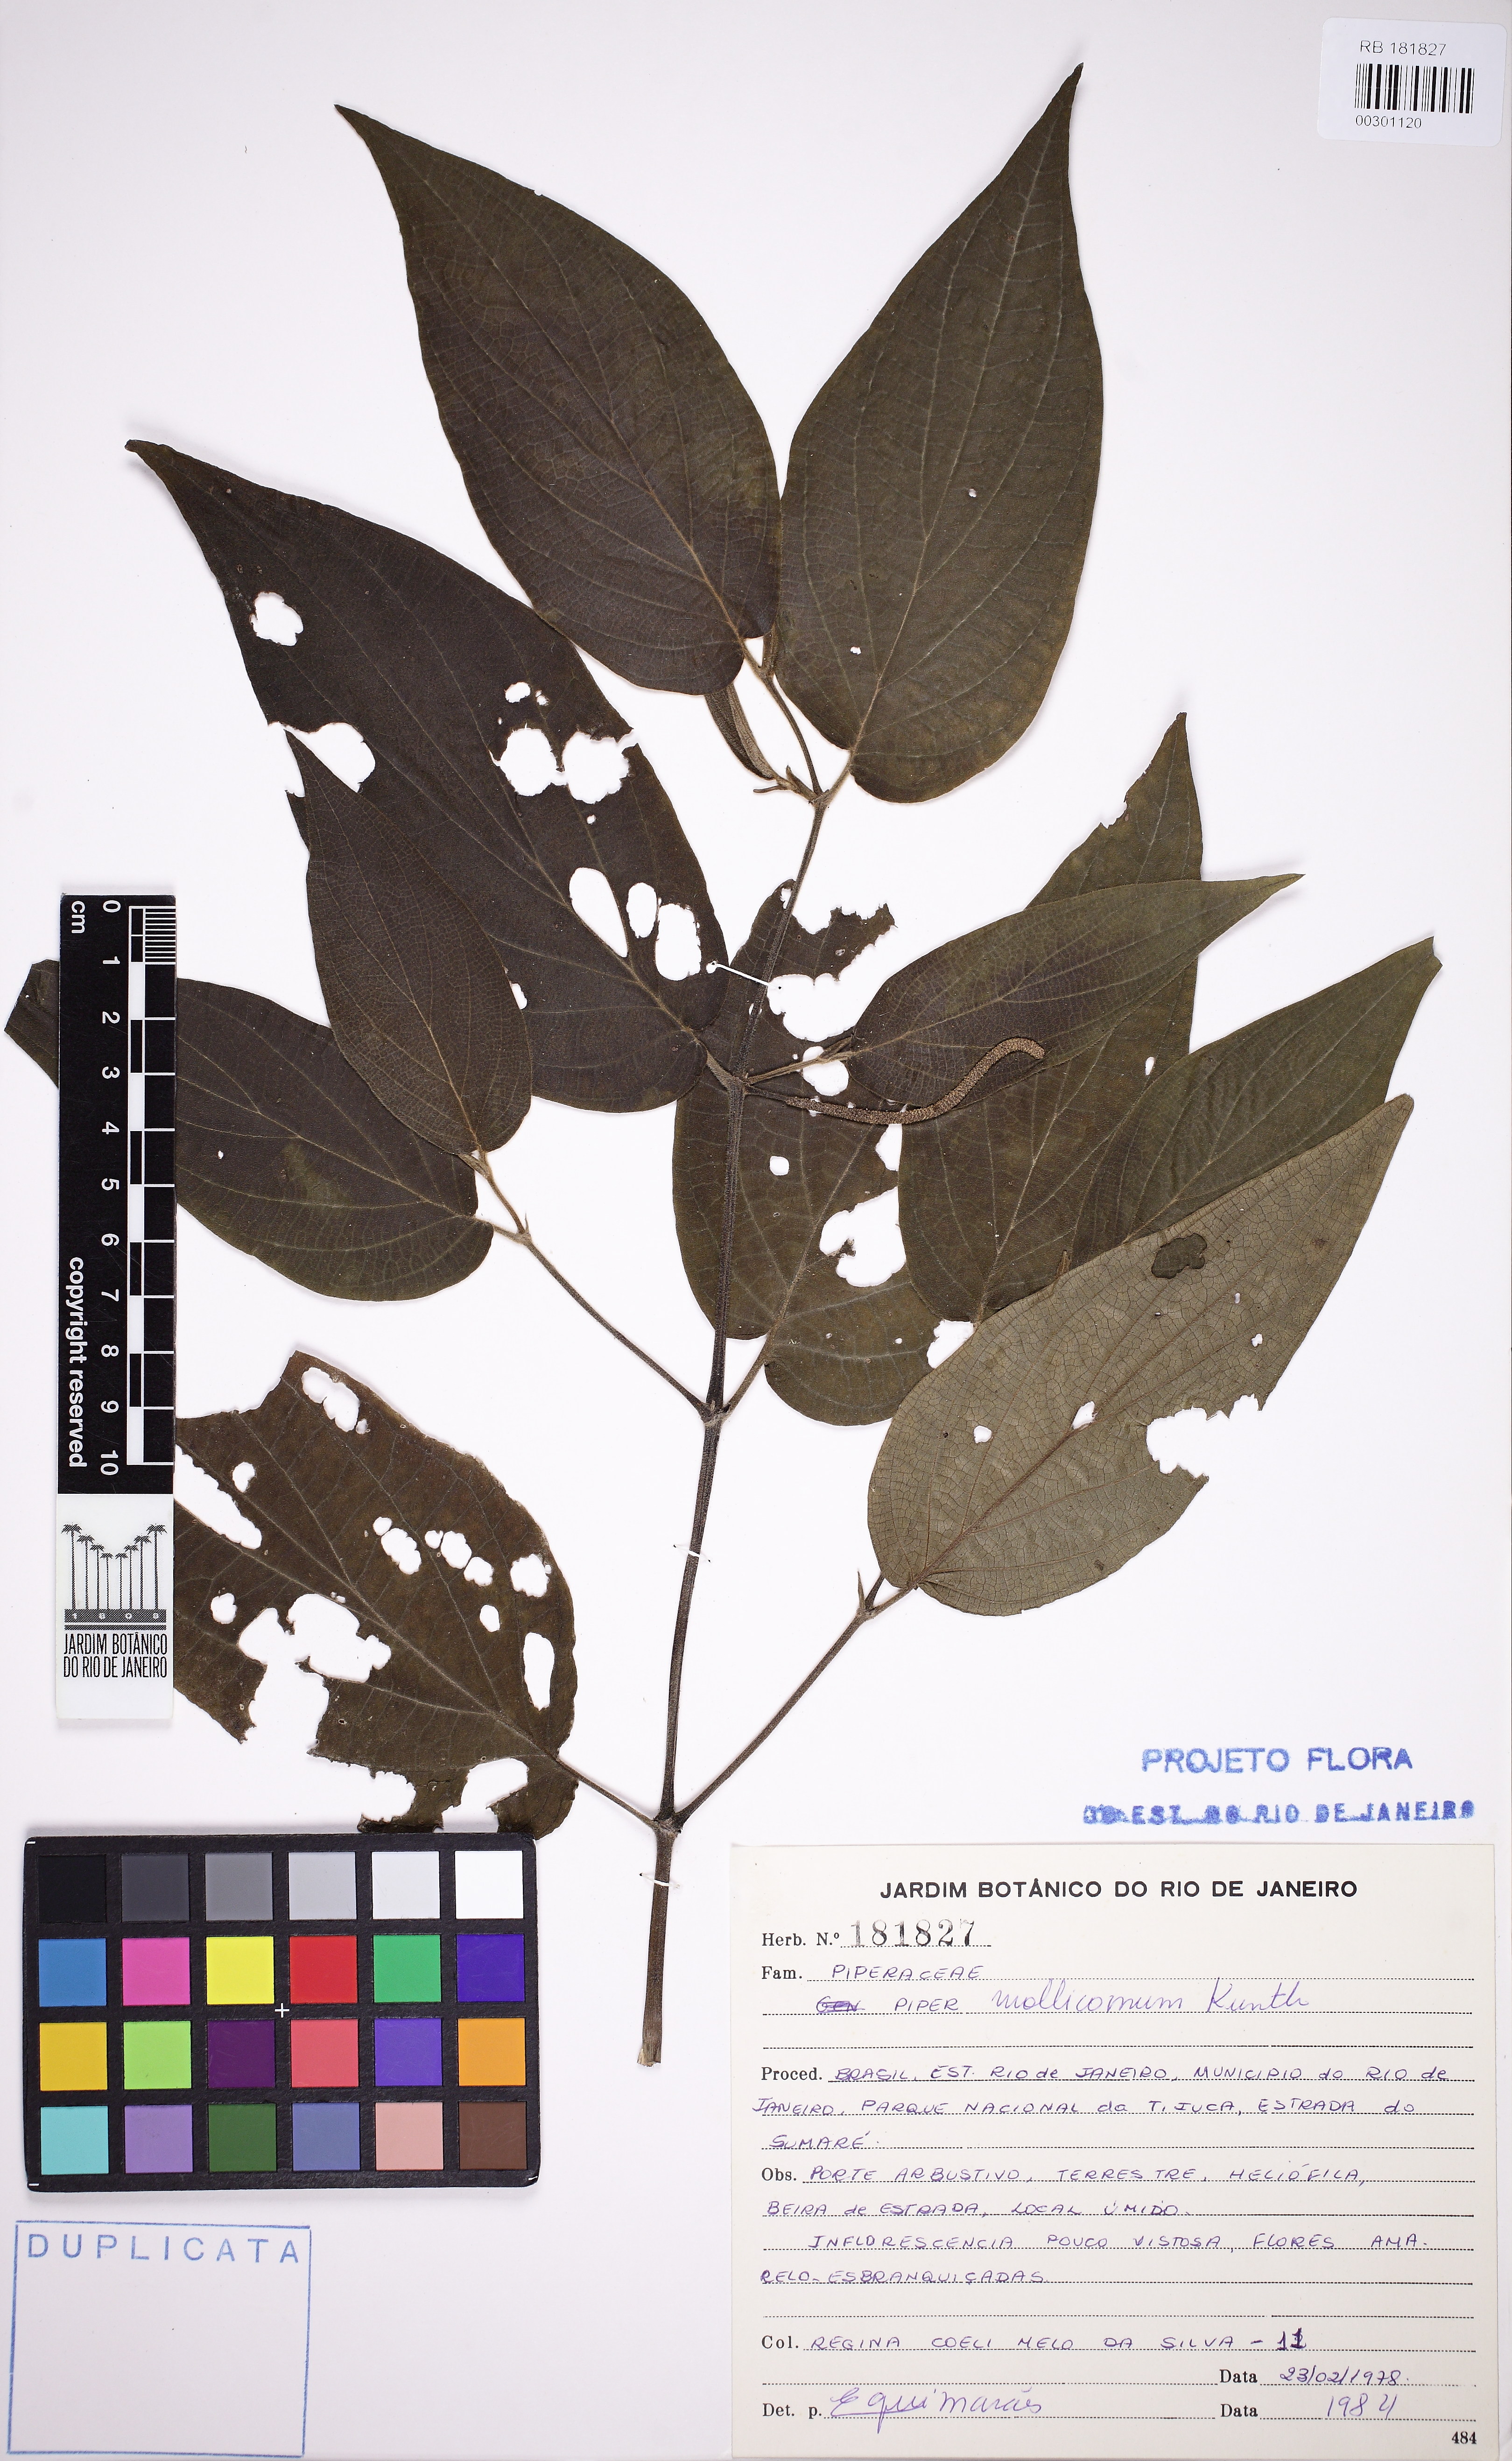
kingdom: Plantae
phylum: Tracheophyta
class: Magnoliopsida
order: Piperales
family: Piperaceae
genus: Piper
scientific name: Piper mollicomum
